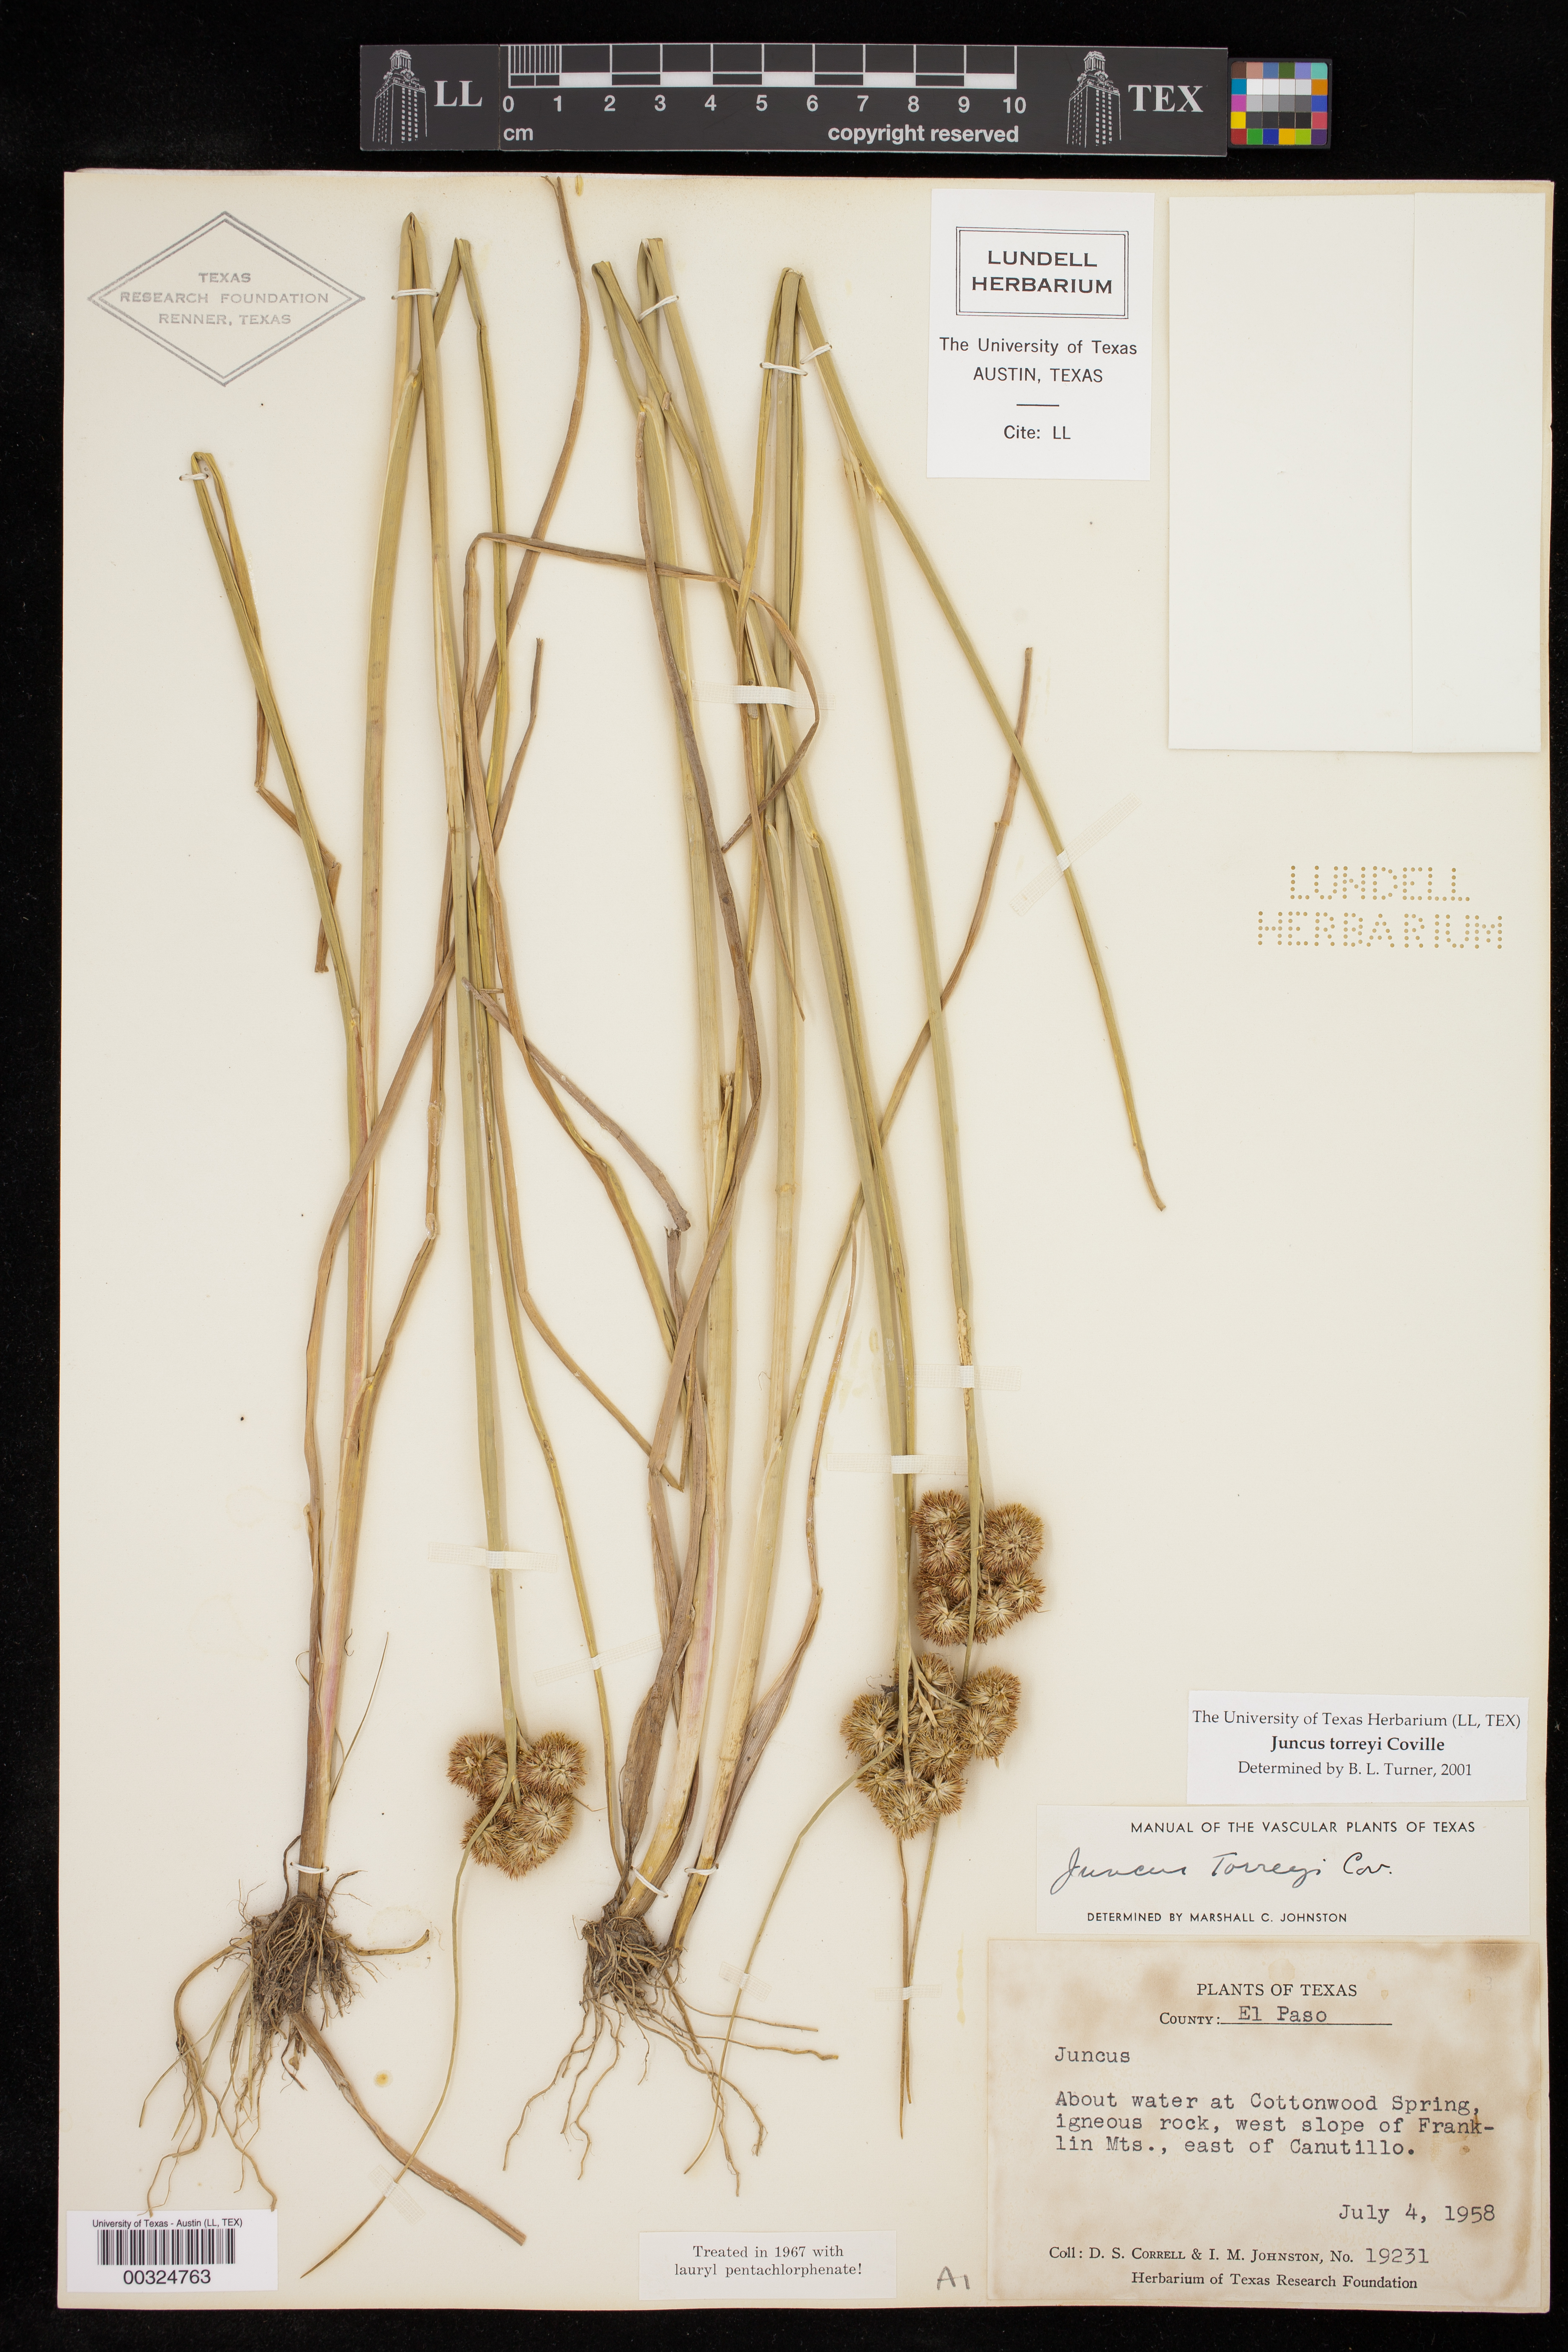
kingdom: Plantae
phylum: Tracheophyta
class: Liliopsida
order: Poales
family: Juncaceae
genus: Juncus
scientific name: Juncus torreyi
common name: Torrey's rush
